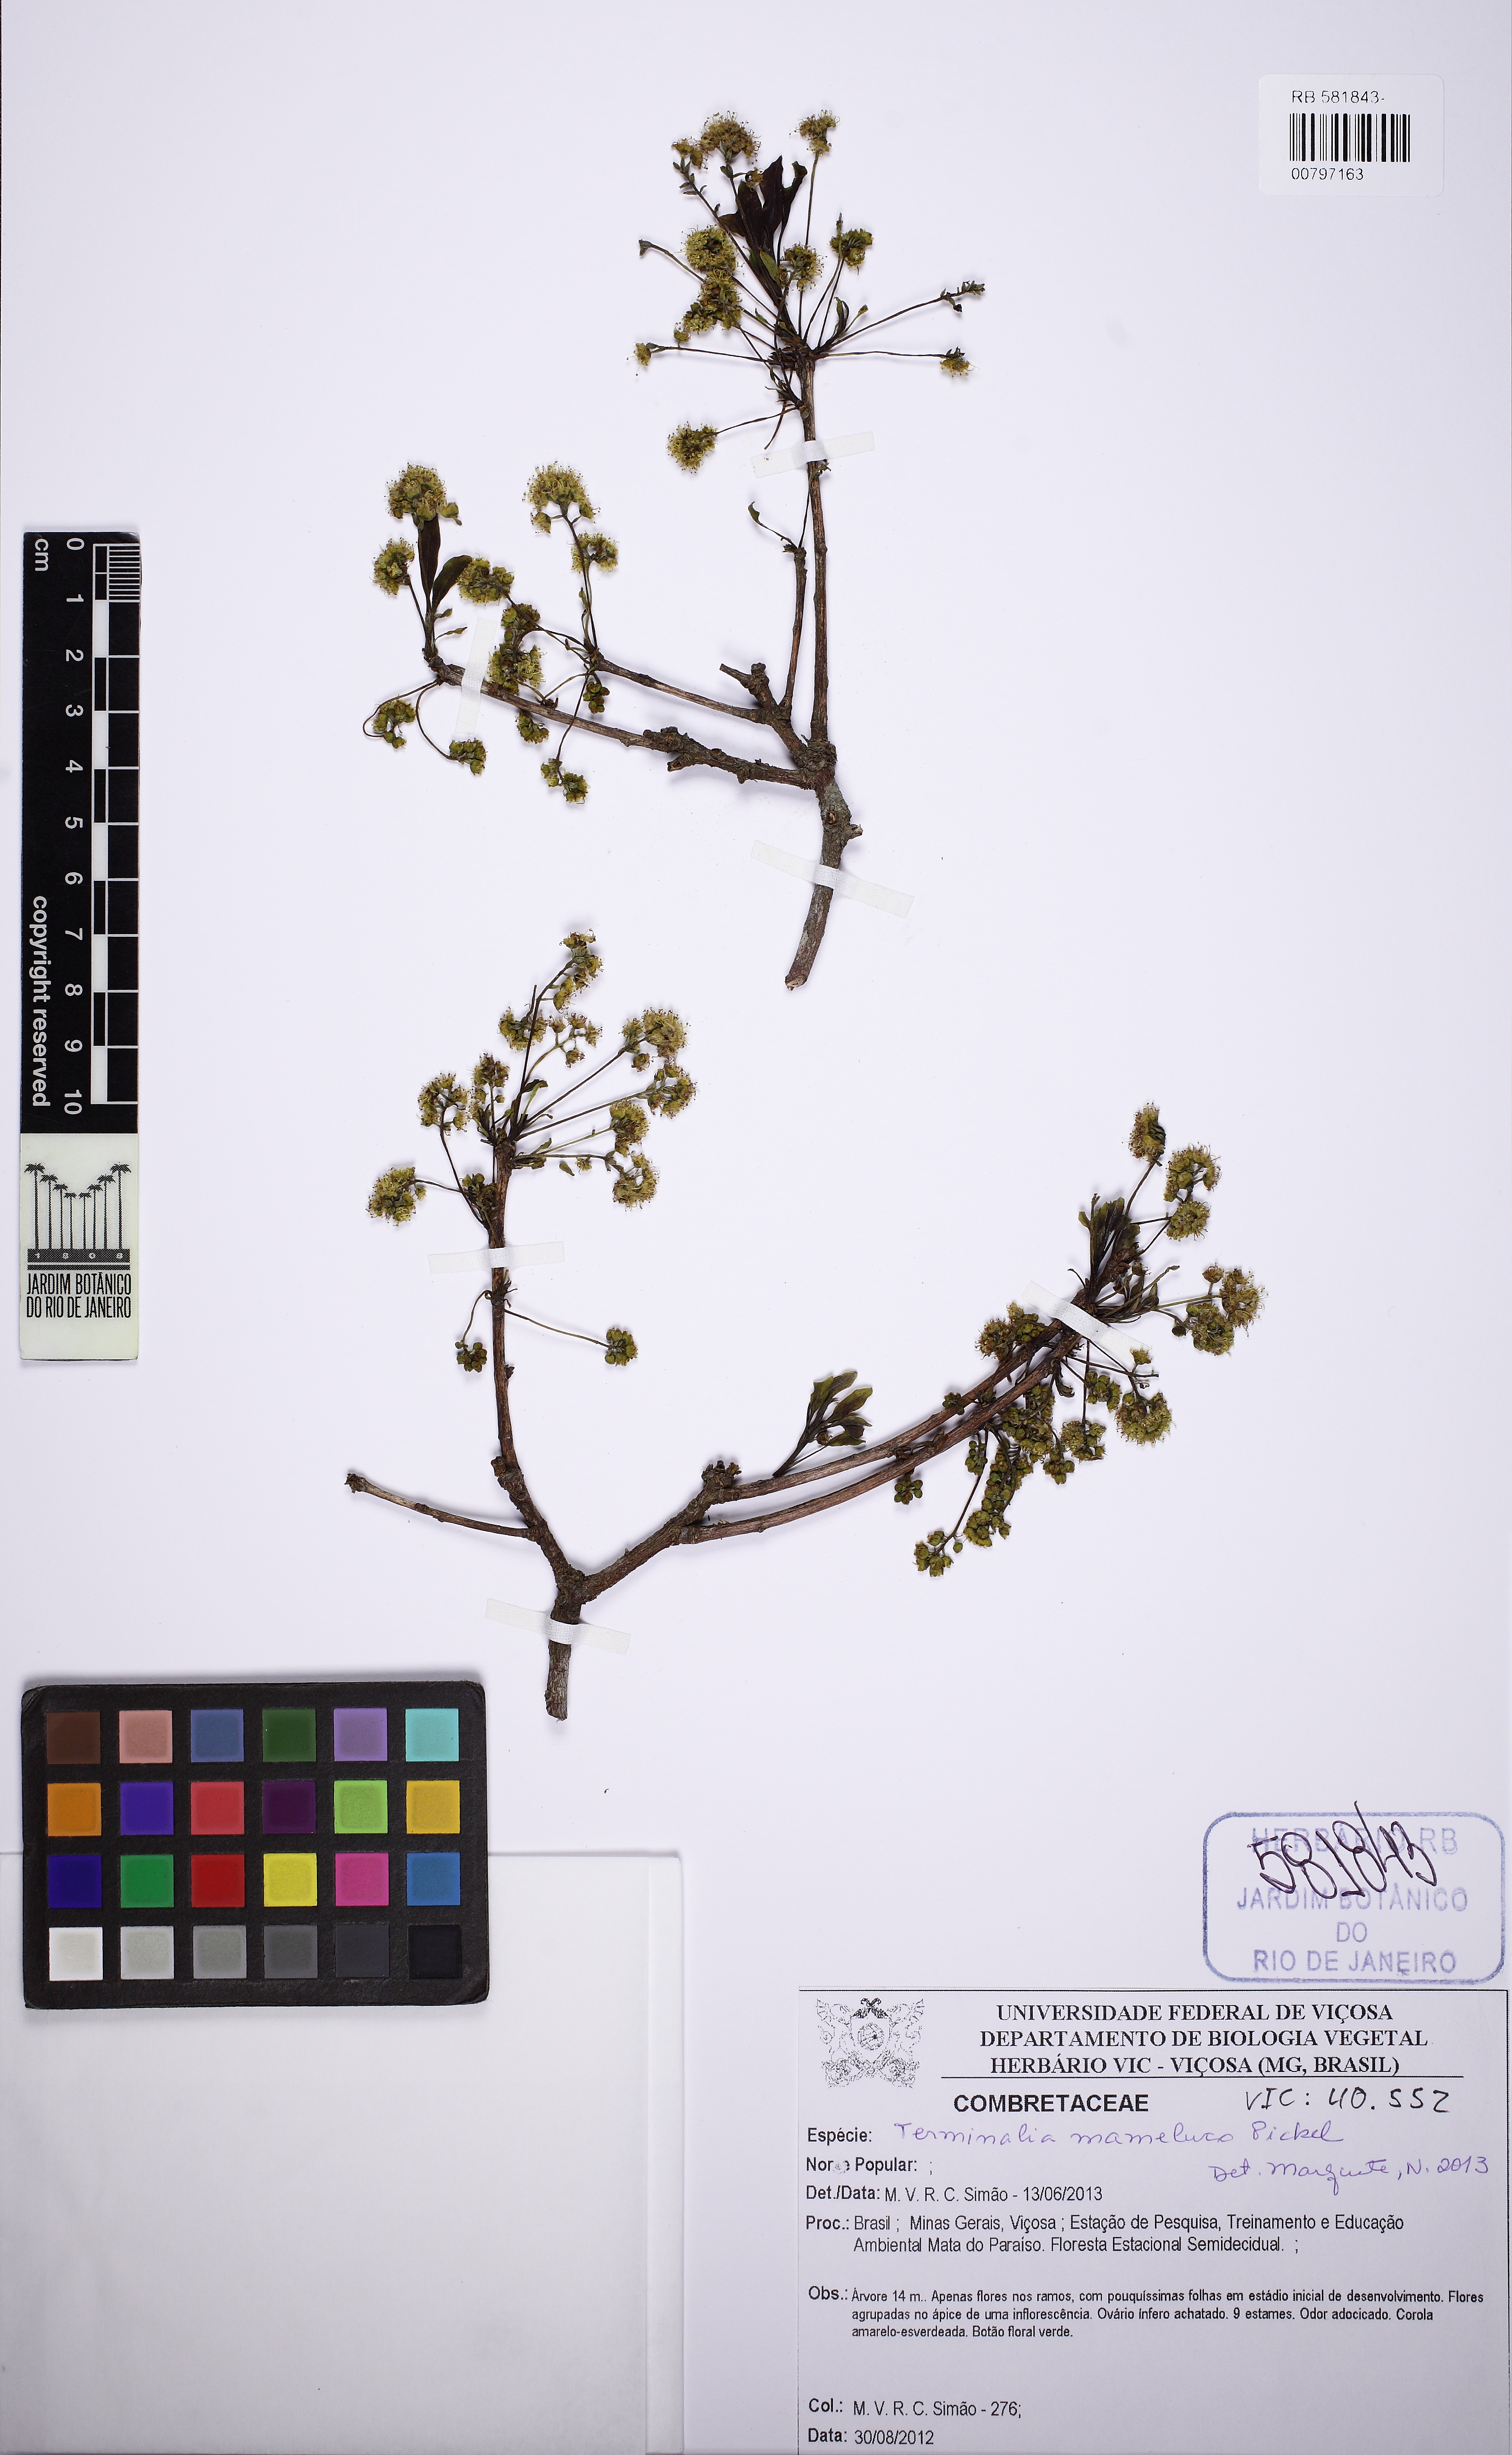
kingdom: Plantae
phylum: Tracheophyta
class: Magnoliopsida
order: Myrtales
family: Combretaceae
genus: Terminalia
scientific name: Terminalia mameluco
